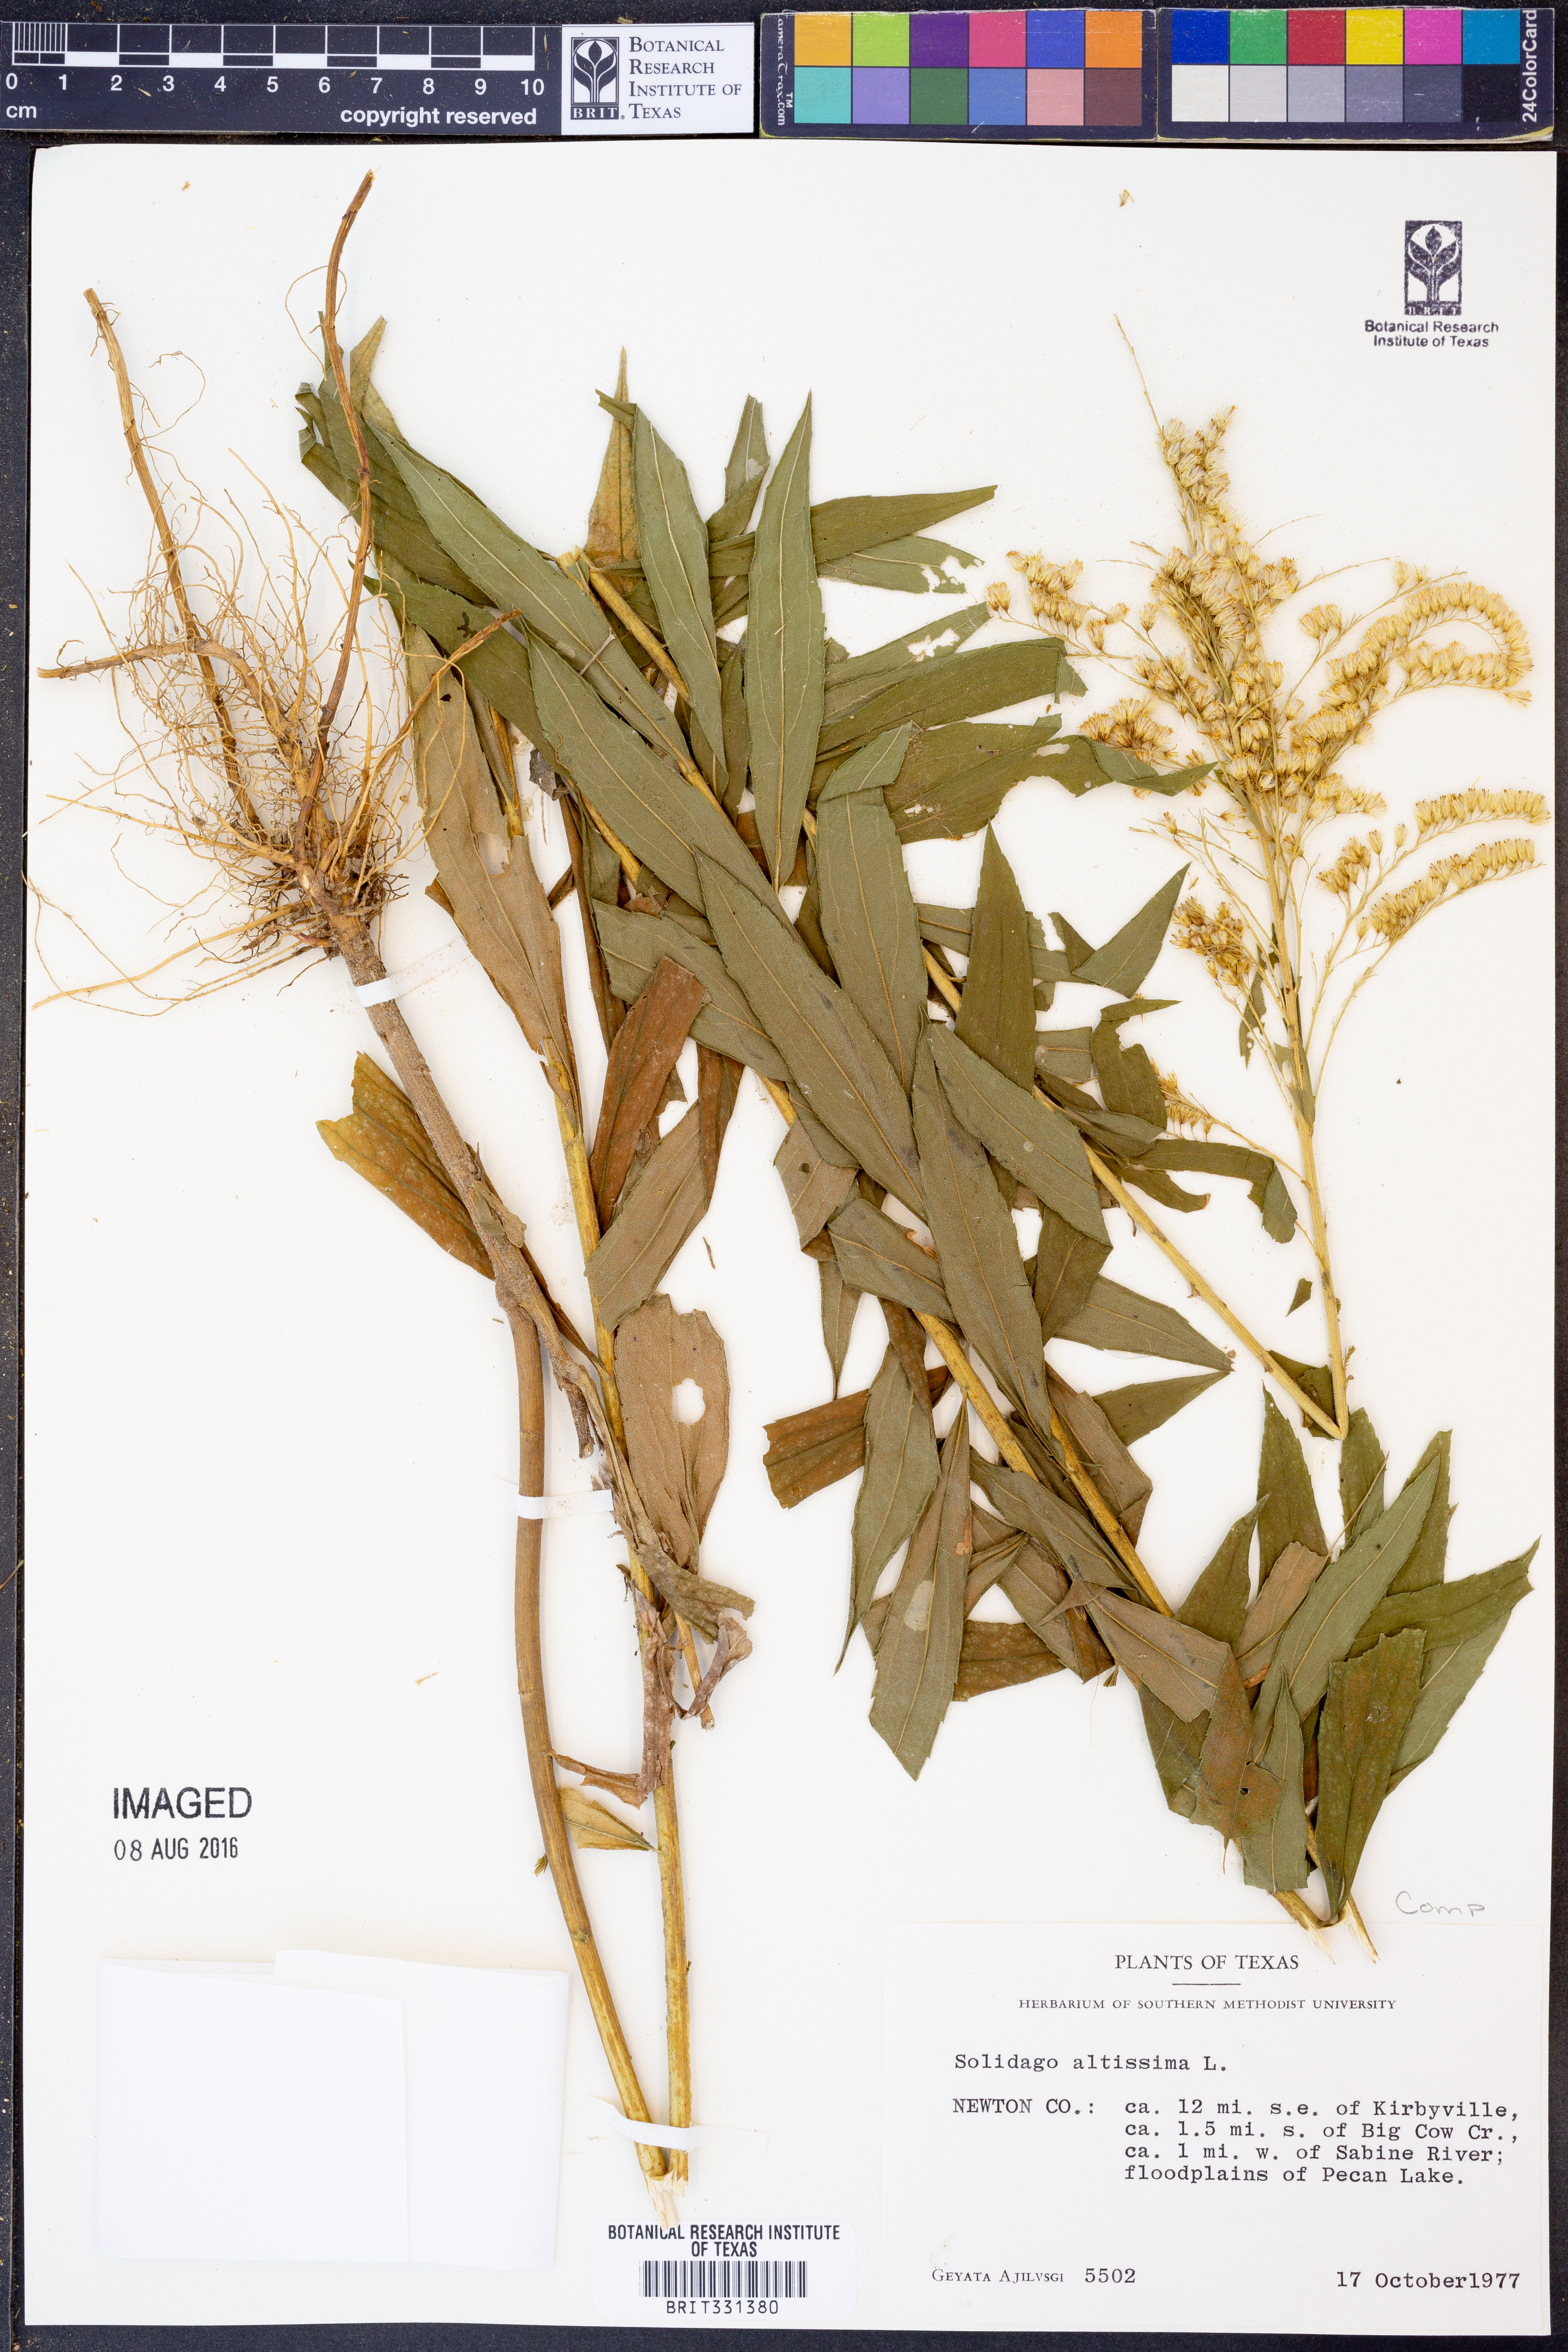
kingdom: Plantae
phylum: Tracheophyta
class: Magnoliopsida
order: Asterales
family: Asteraceae
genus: Solidago
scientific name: Solidago altissima
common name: Late goldenrod
